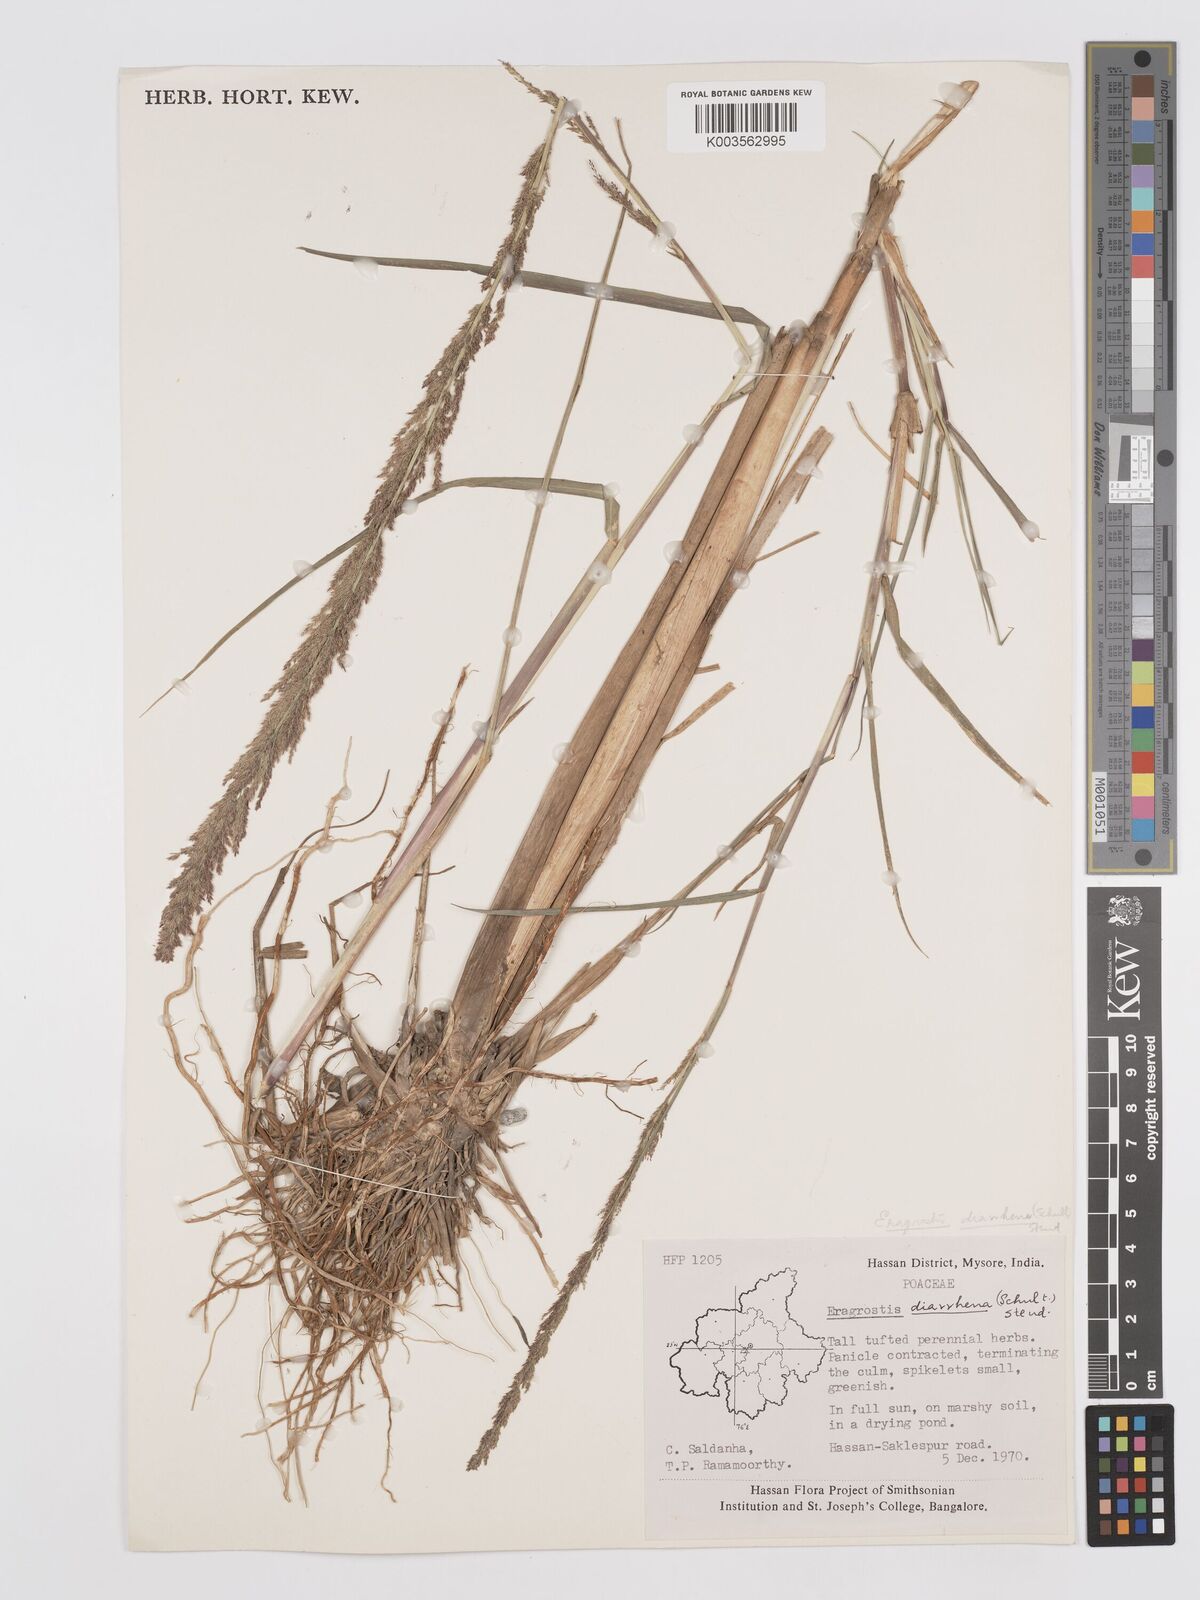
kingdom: Plantae
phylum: Tracheophyta
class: Liliopsida
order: Poales
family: Poaceae
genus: Eragrostis
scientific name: Eragrostis japonica
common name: Pond lovegrass
